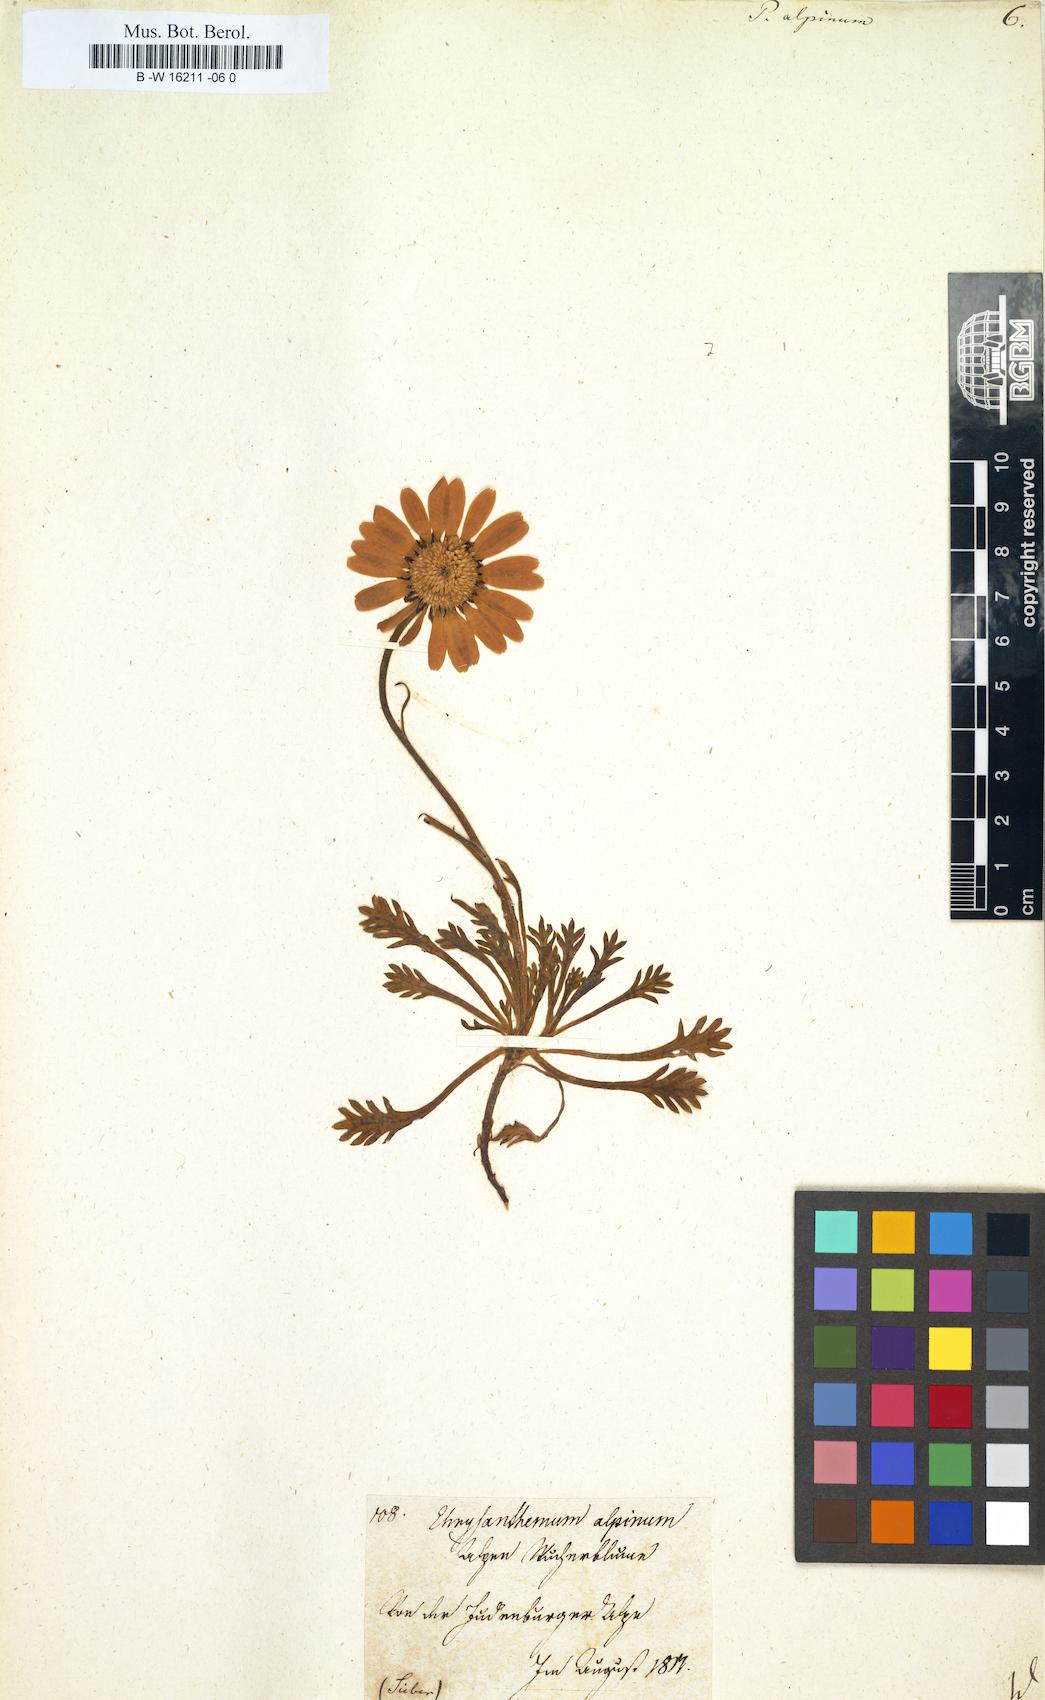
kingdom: Plantae
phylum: Tracheophyta
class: Magnoliopsida
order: Asterales
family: Asteraceae
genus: Leucanthemopsis
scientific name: Leucanthemopsis alpina
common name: Alpine moon daisy
